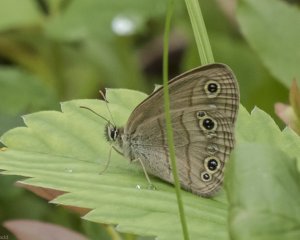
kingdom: Animalia
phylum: Arthropoda
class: Insecta
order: Lepidoptera
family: Nymphalidae
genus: Euptychia
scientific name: Euptychia cymela
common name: Little Wood Satyr
